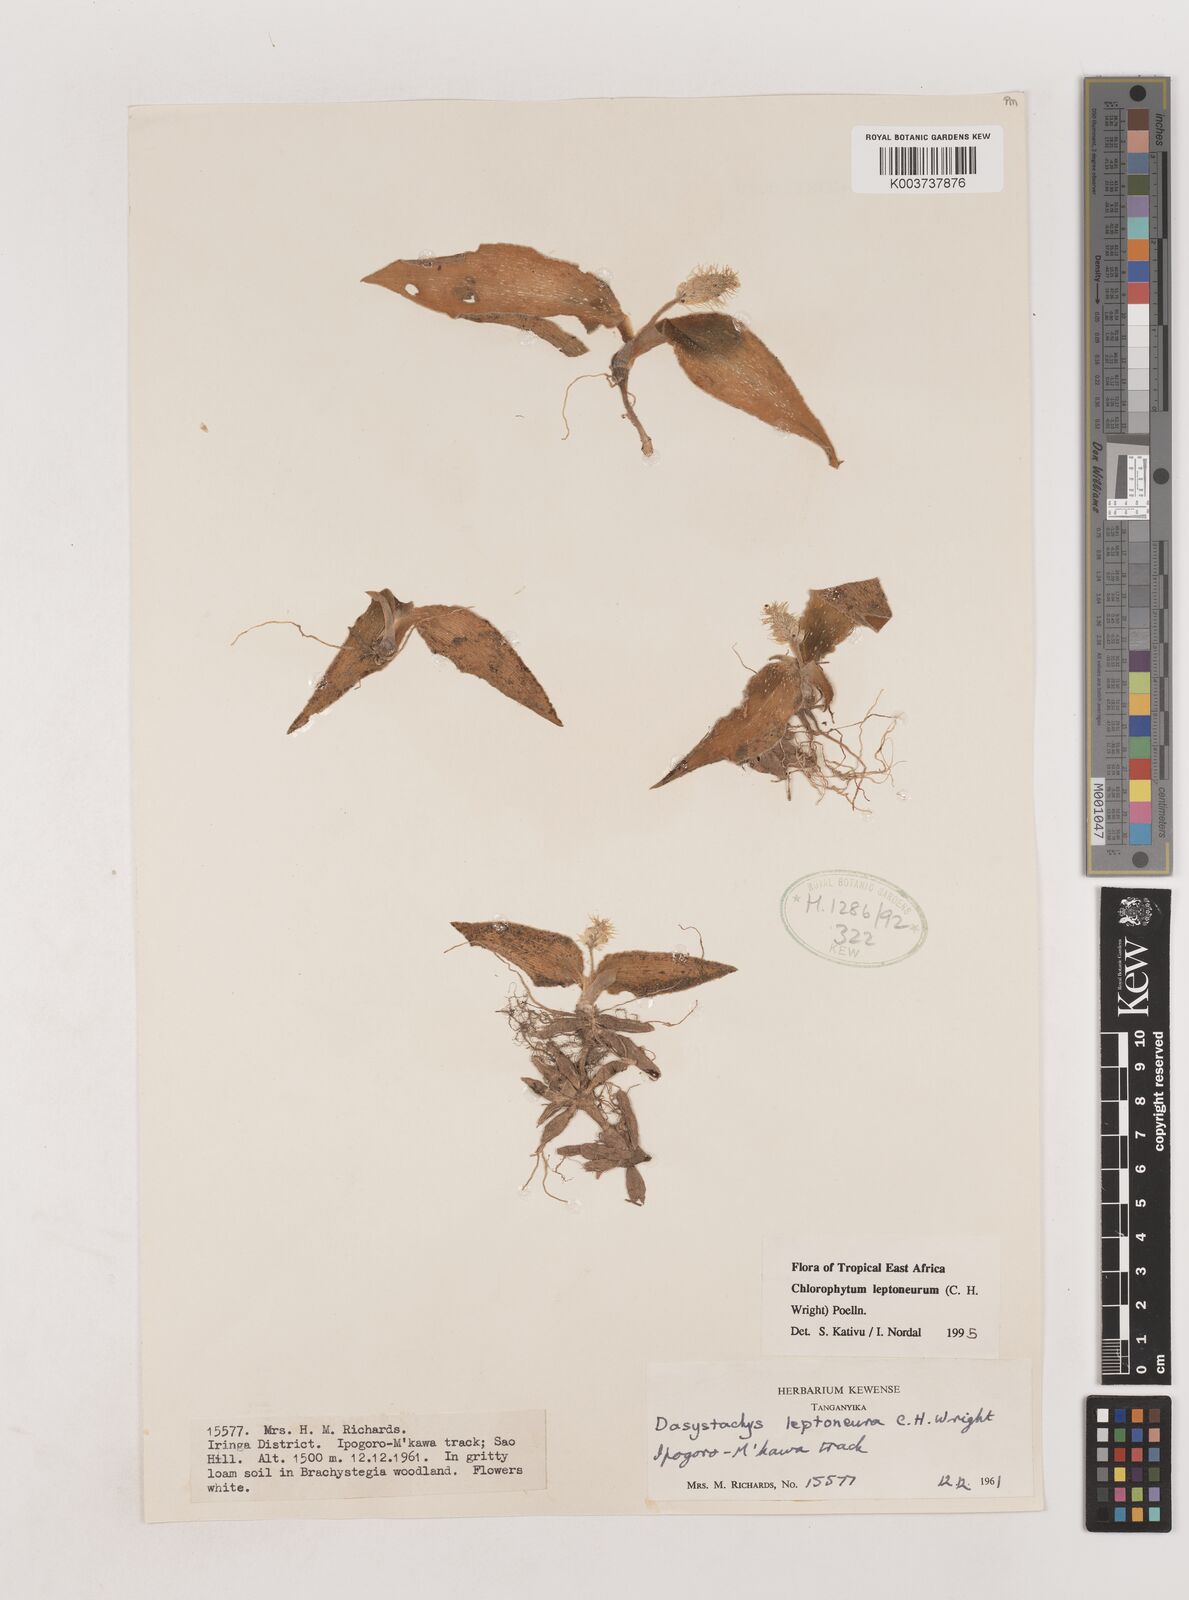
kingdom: Plantae
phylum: Tracheophyta
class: Liliopsida
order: Asparagales
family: Asparagaceae
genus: Chlorophytum
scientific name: Chlorophytum leptoneurum
